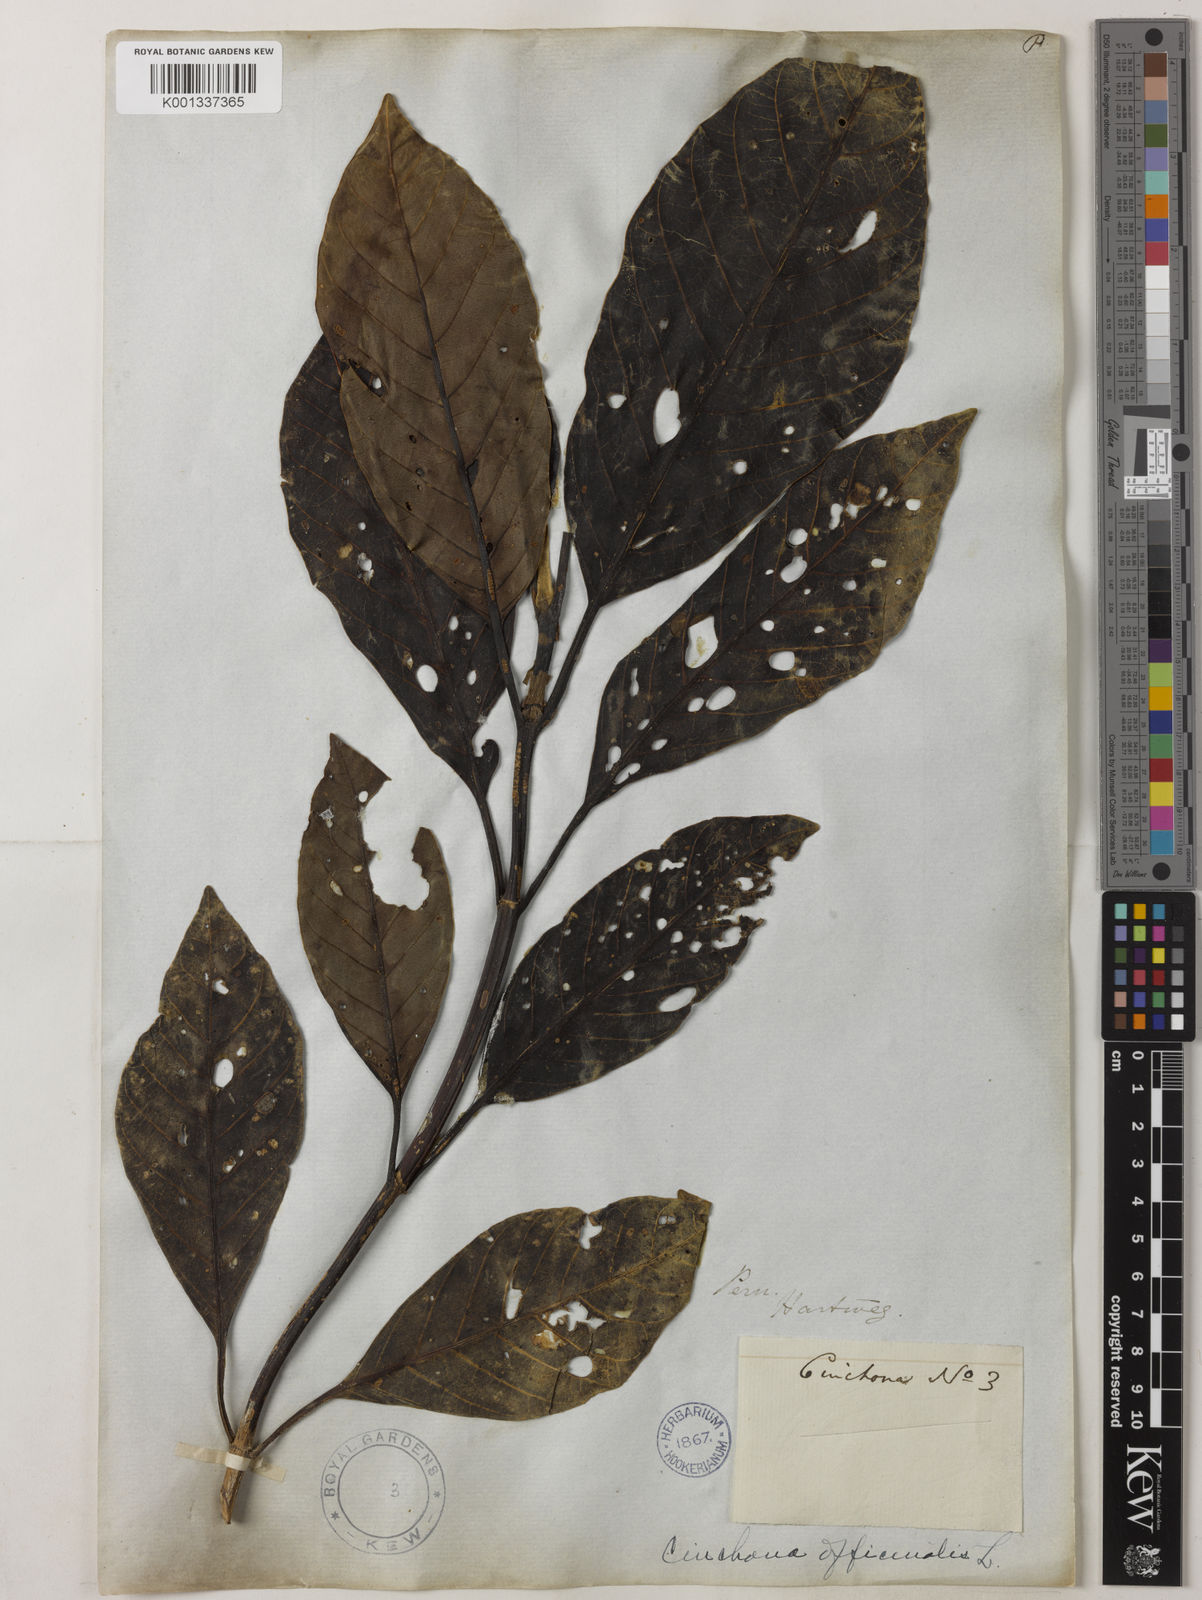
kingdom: Plantae
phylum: Tracheophyta
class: Magnoliopsida
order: Gentianales
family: Rubiaceae
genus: Cinchona
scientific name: Cinchona
